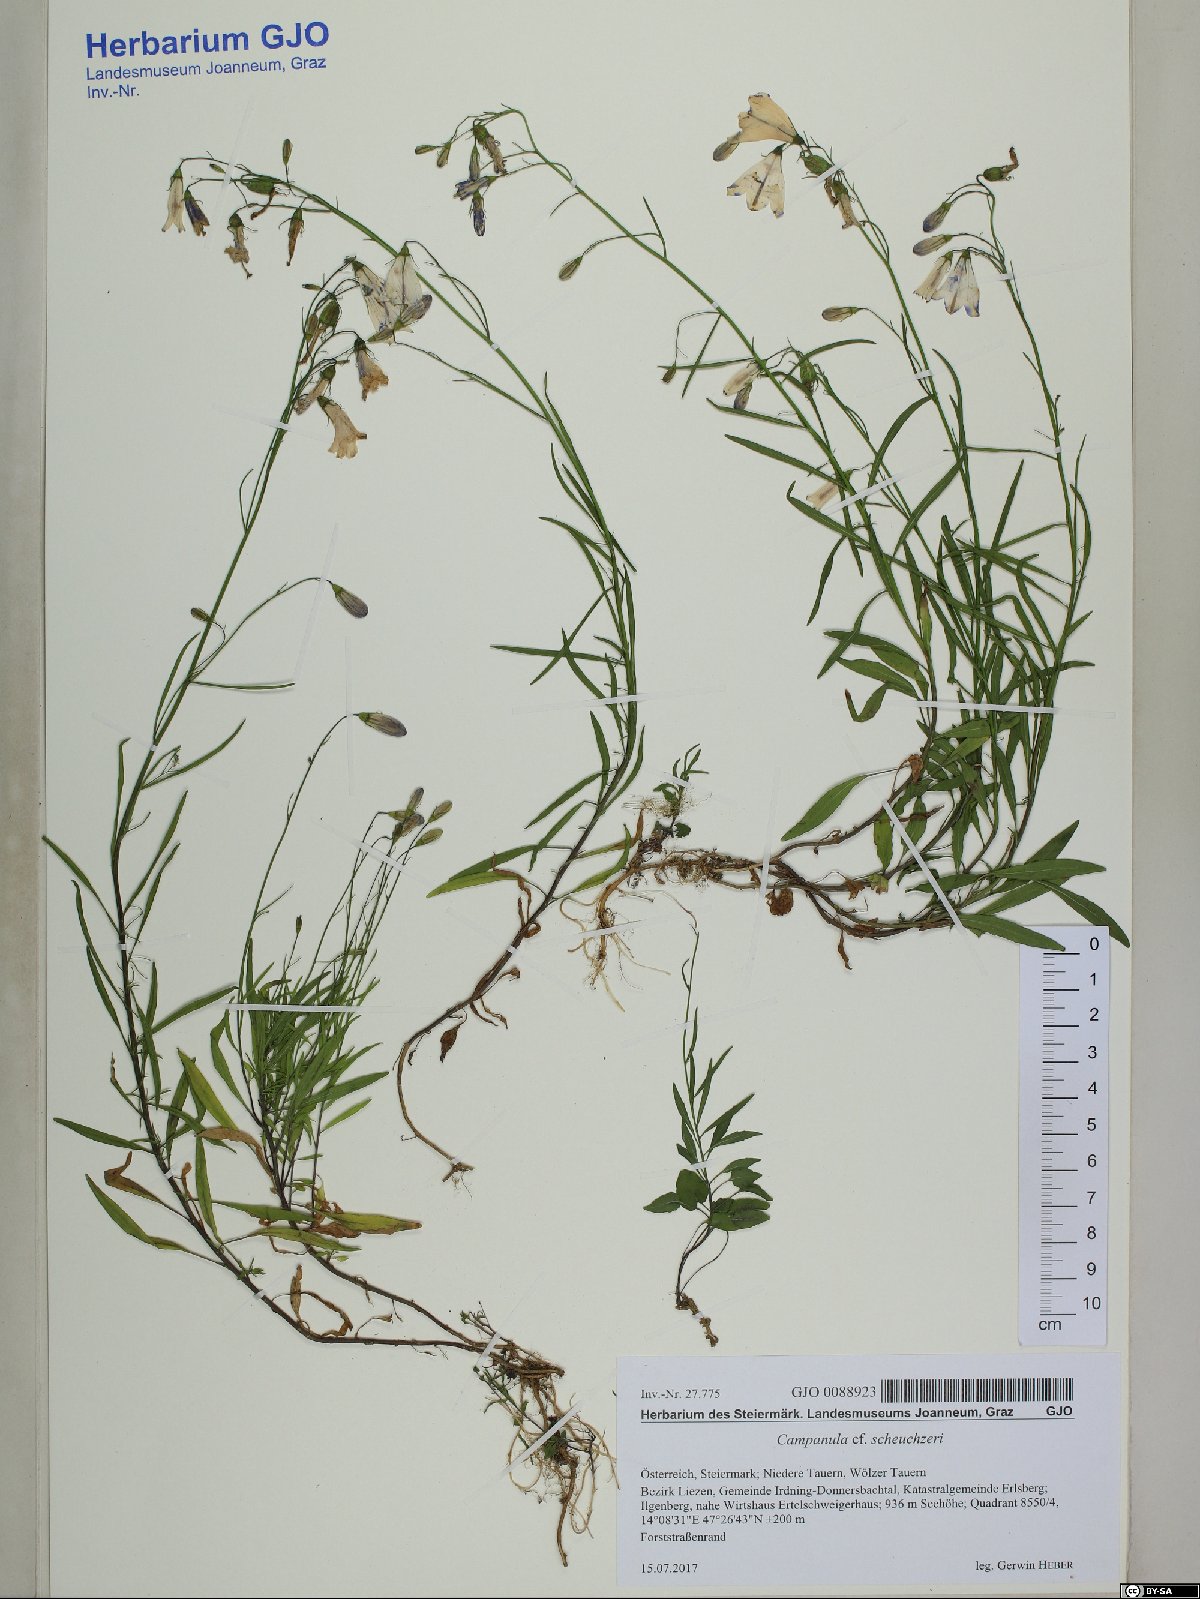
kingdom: Plantae
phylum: Tracheophyta
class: Magnoliopsida
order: Asterales
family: Campanulaceae
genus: Campanula
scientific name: Campanula scheuchzeri
